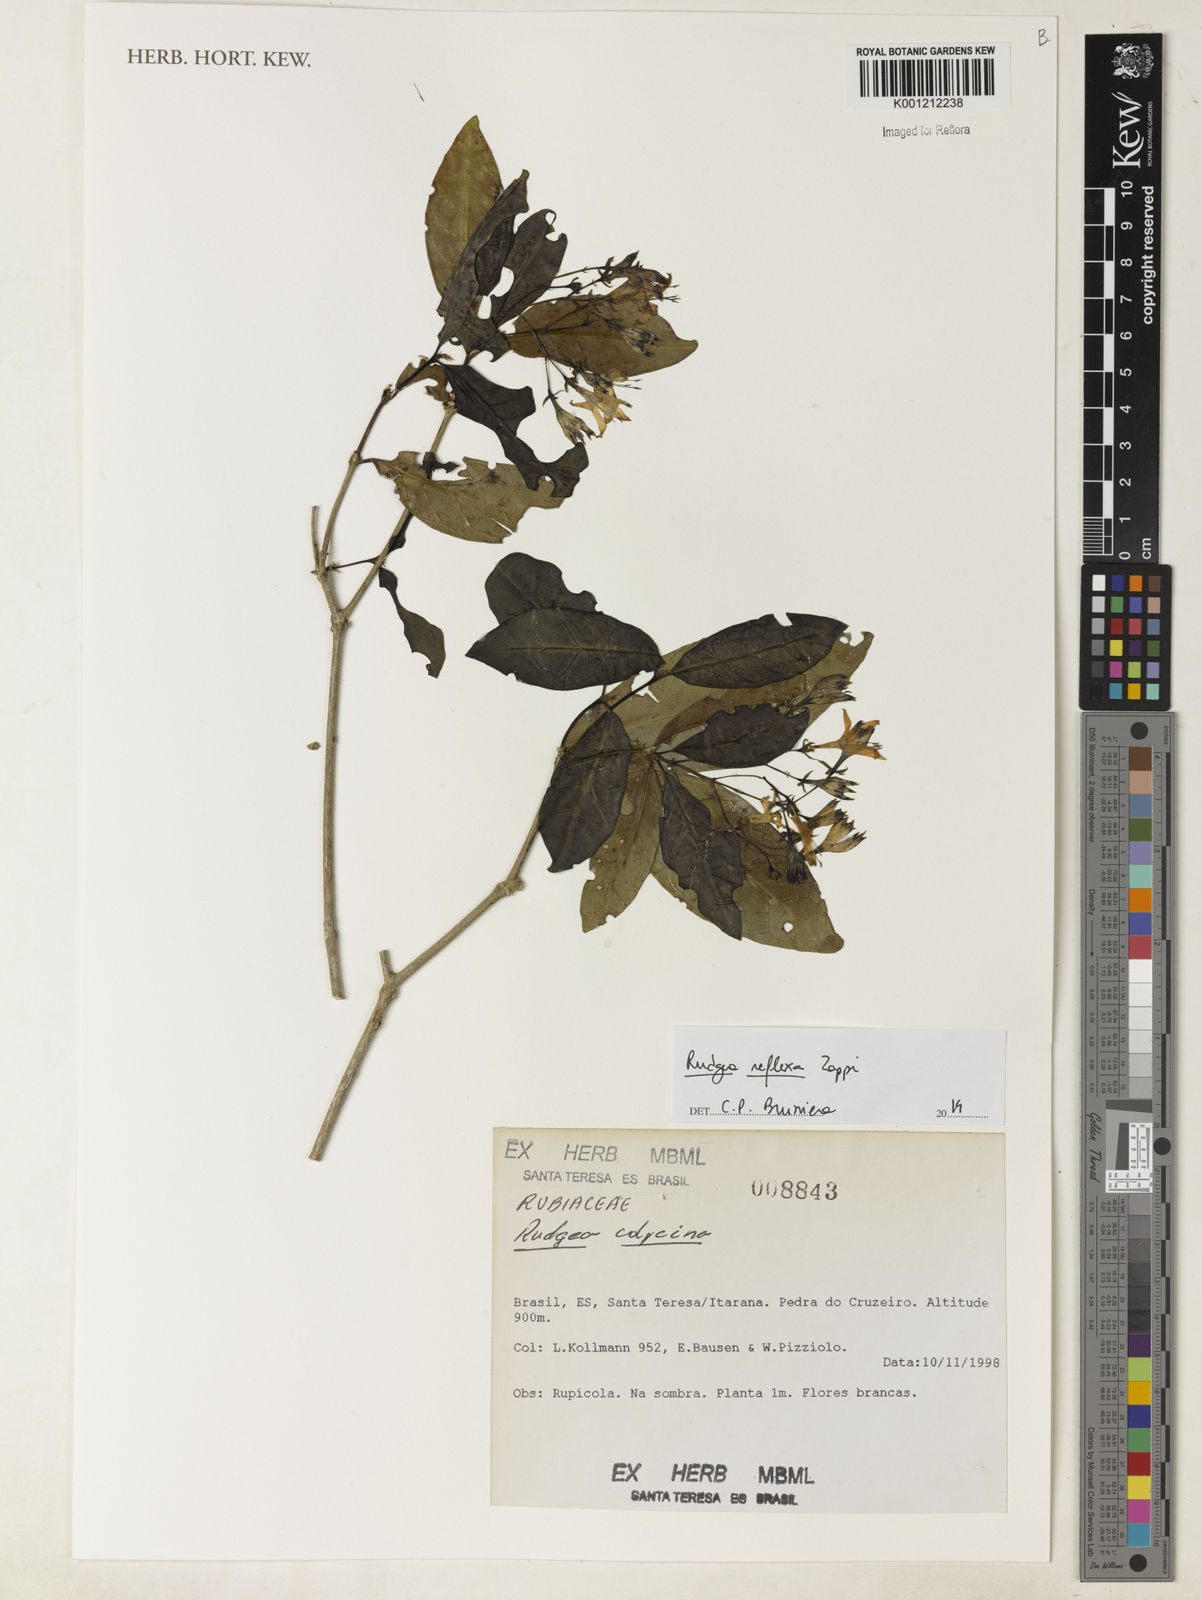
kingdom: Plantae
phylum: Tracheophyta
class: Magnoliopsida
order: Gentianales
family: Rubiaceae
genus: Rudgea
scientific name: Rudgea reflexa
